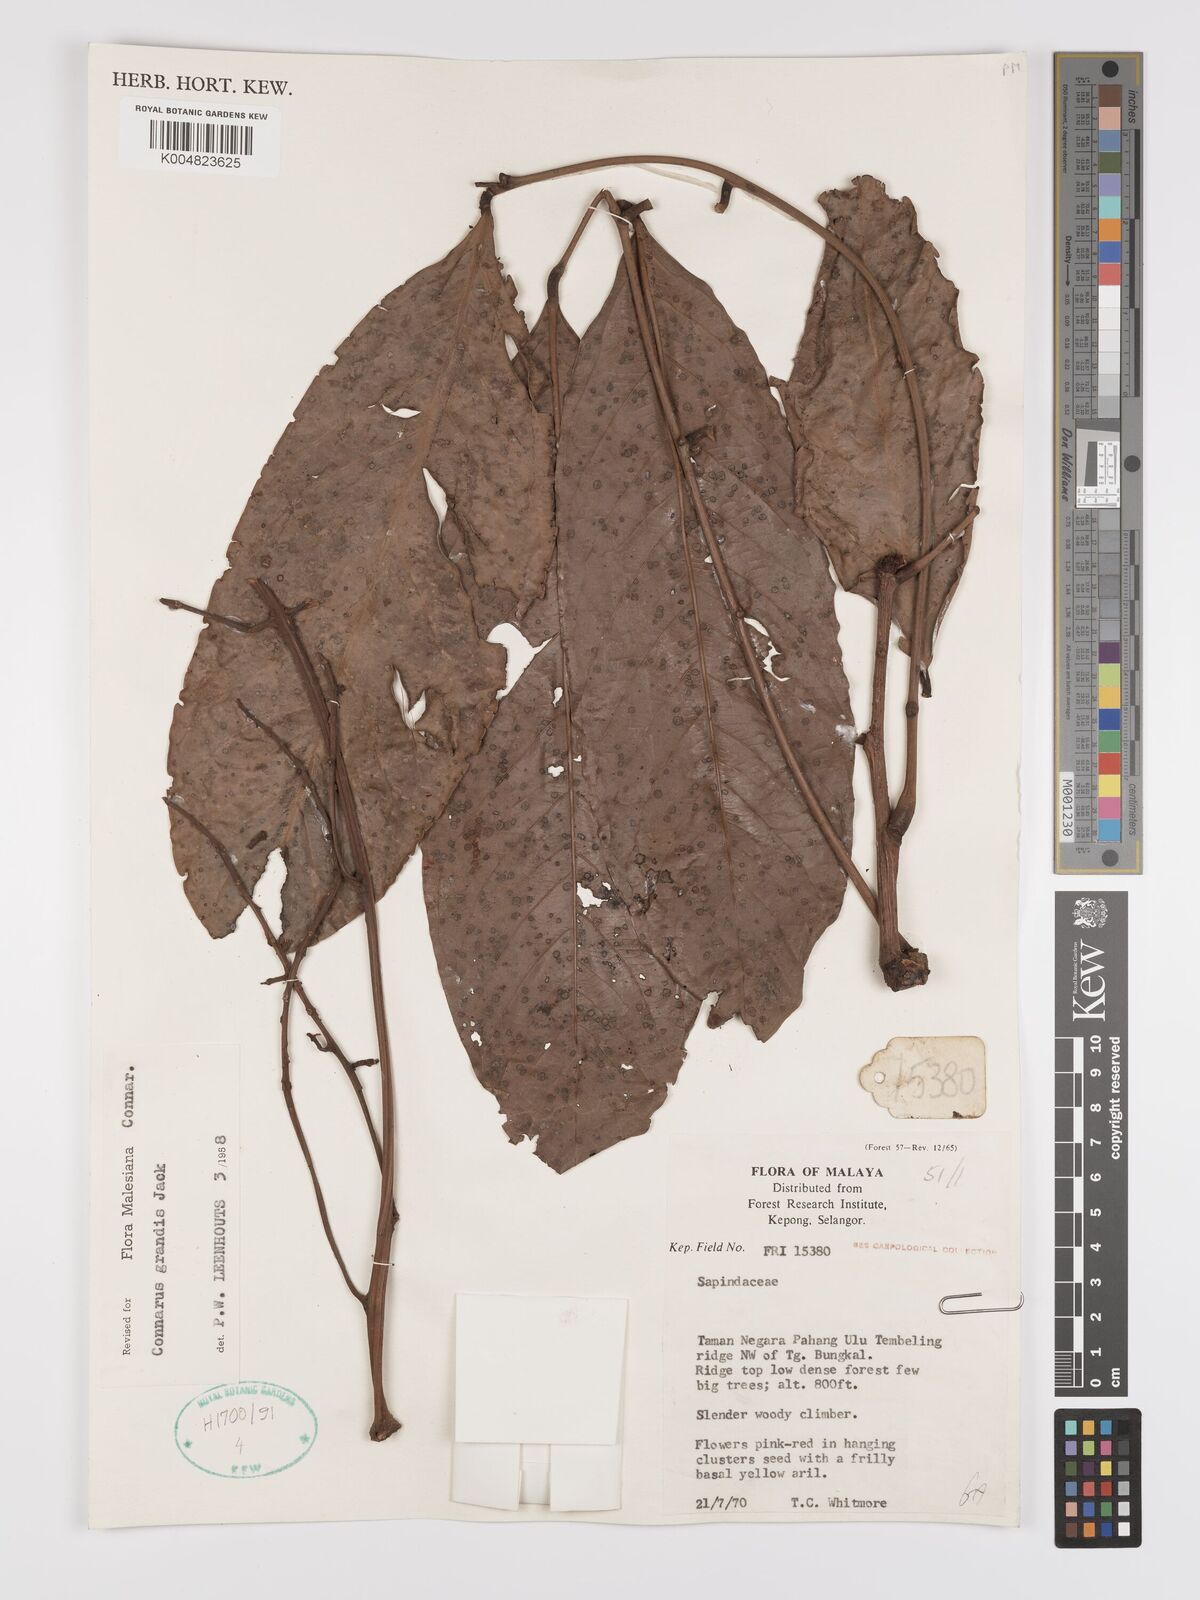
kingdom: Plantae
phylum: Tracheophyta
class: Magnoliopsida
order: Oxalidales
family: Connaraceae
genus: Connarus
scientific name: Connarus grandis
